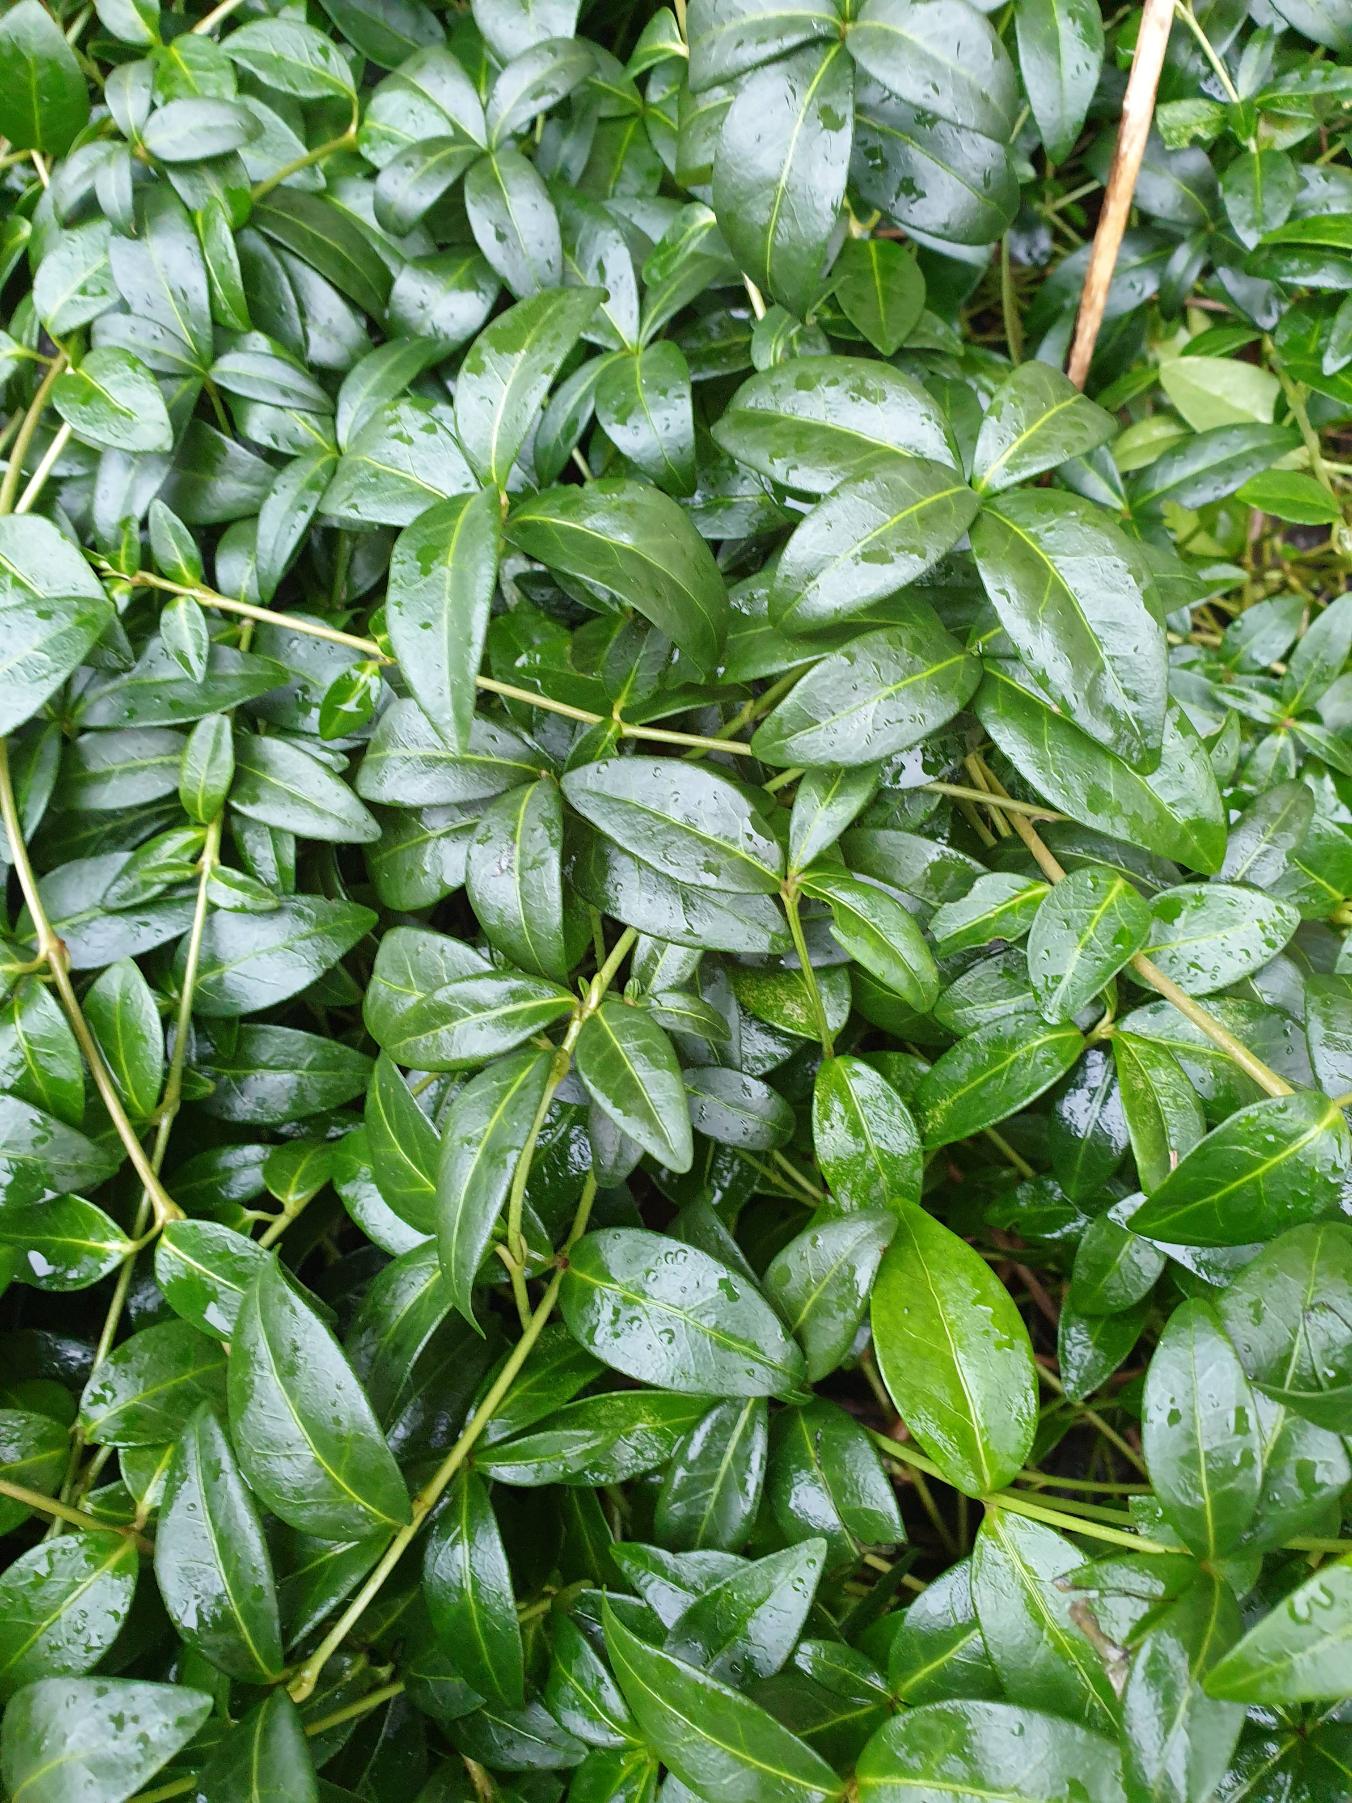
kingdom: Plantae
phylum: Tracheophyta
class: Magnoliopsida
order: Gentianales
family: Apocynaceae
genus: Vinca
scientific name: Vinca minor
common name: Liden singrøn
